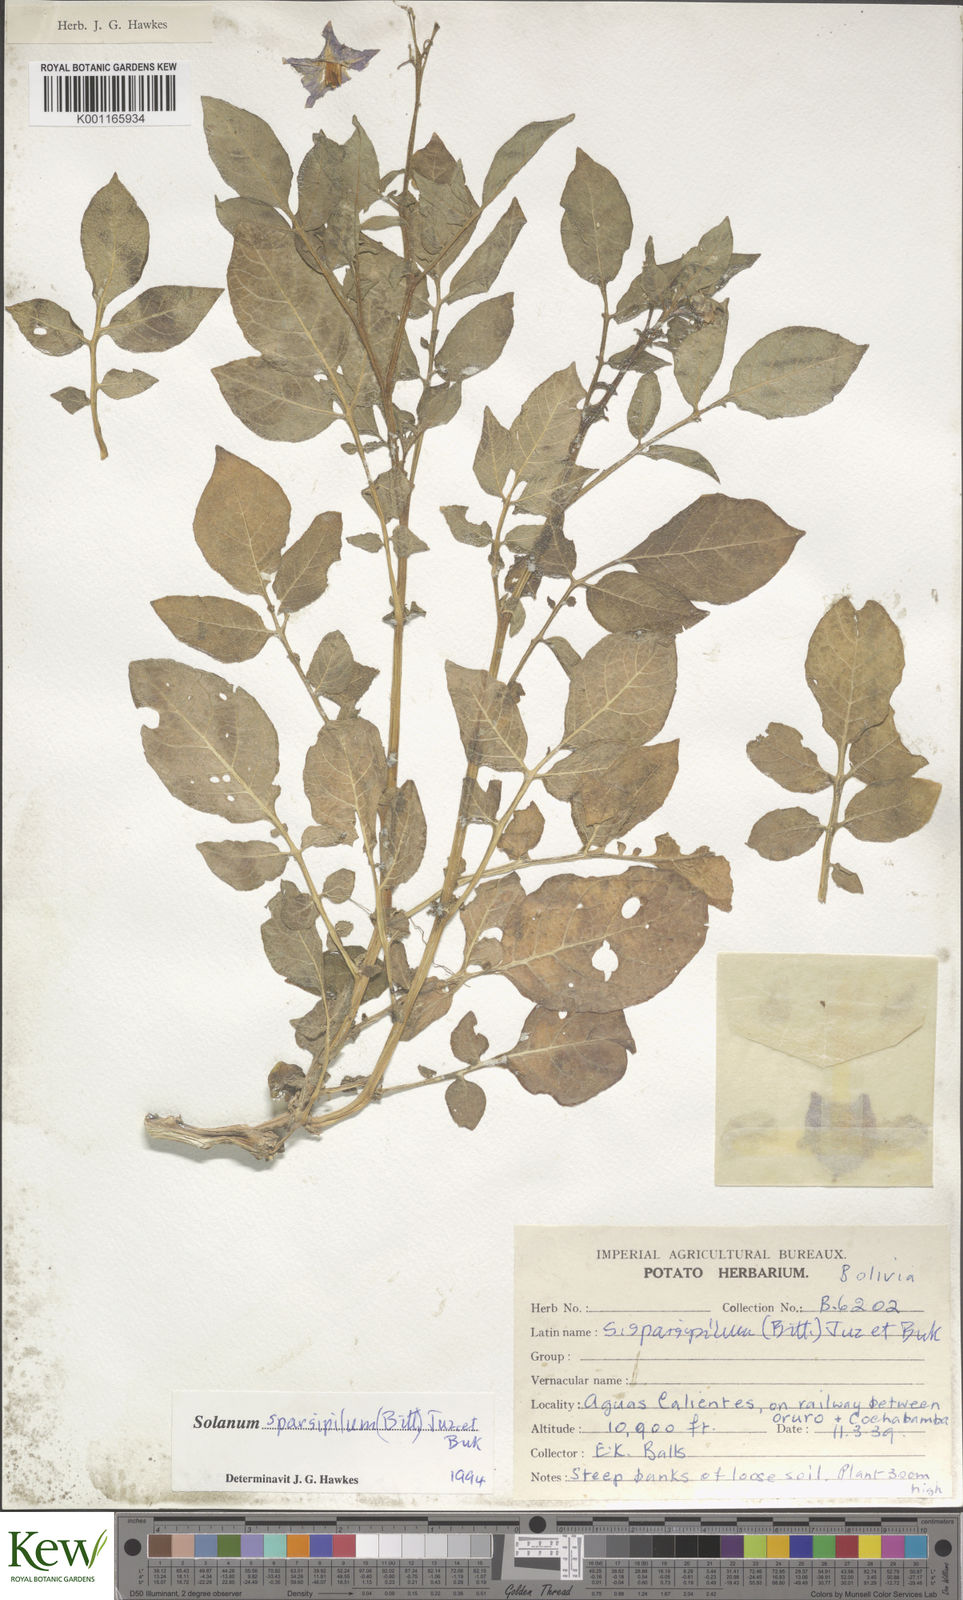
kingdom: Plantae
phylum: Tracheophyta
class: Magnoliopsida
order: Solanales
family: Solanaceae
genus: Solanum
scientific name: Solanum brevicaule
